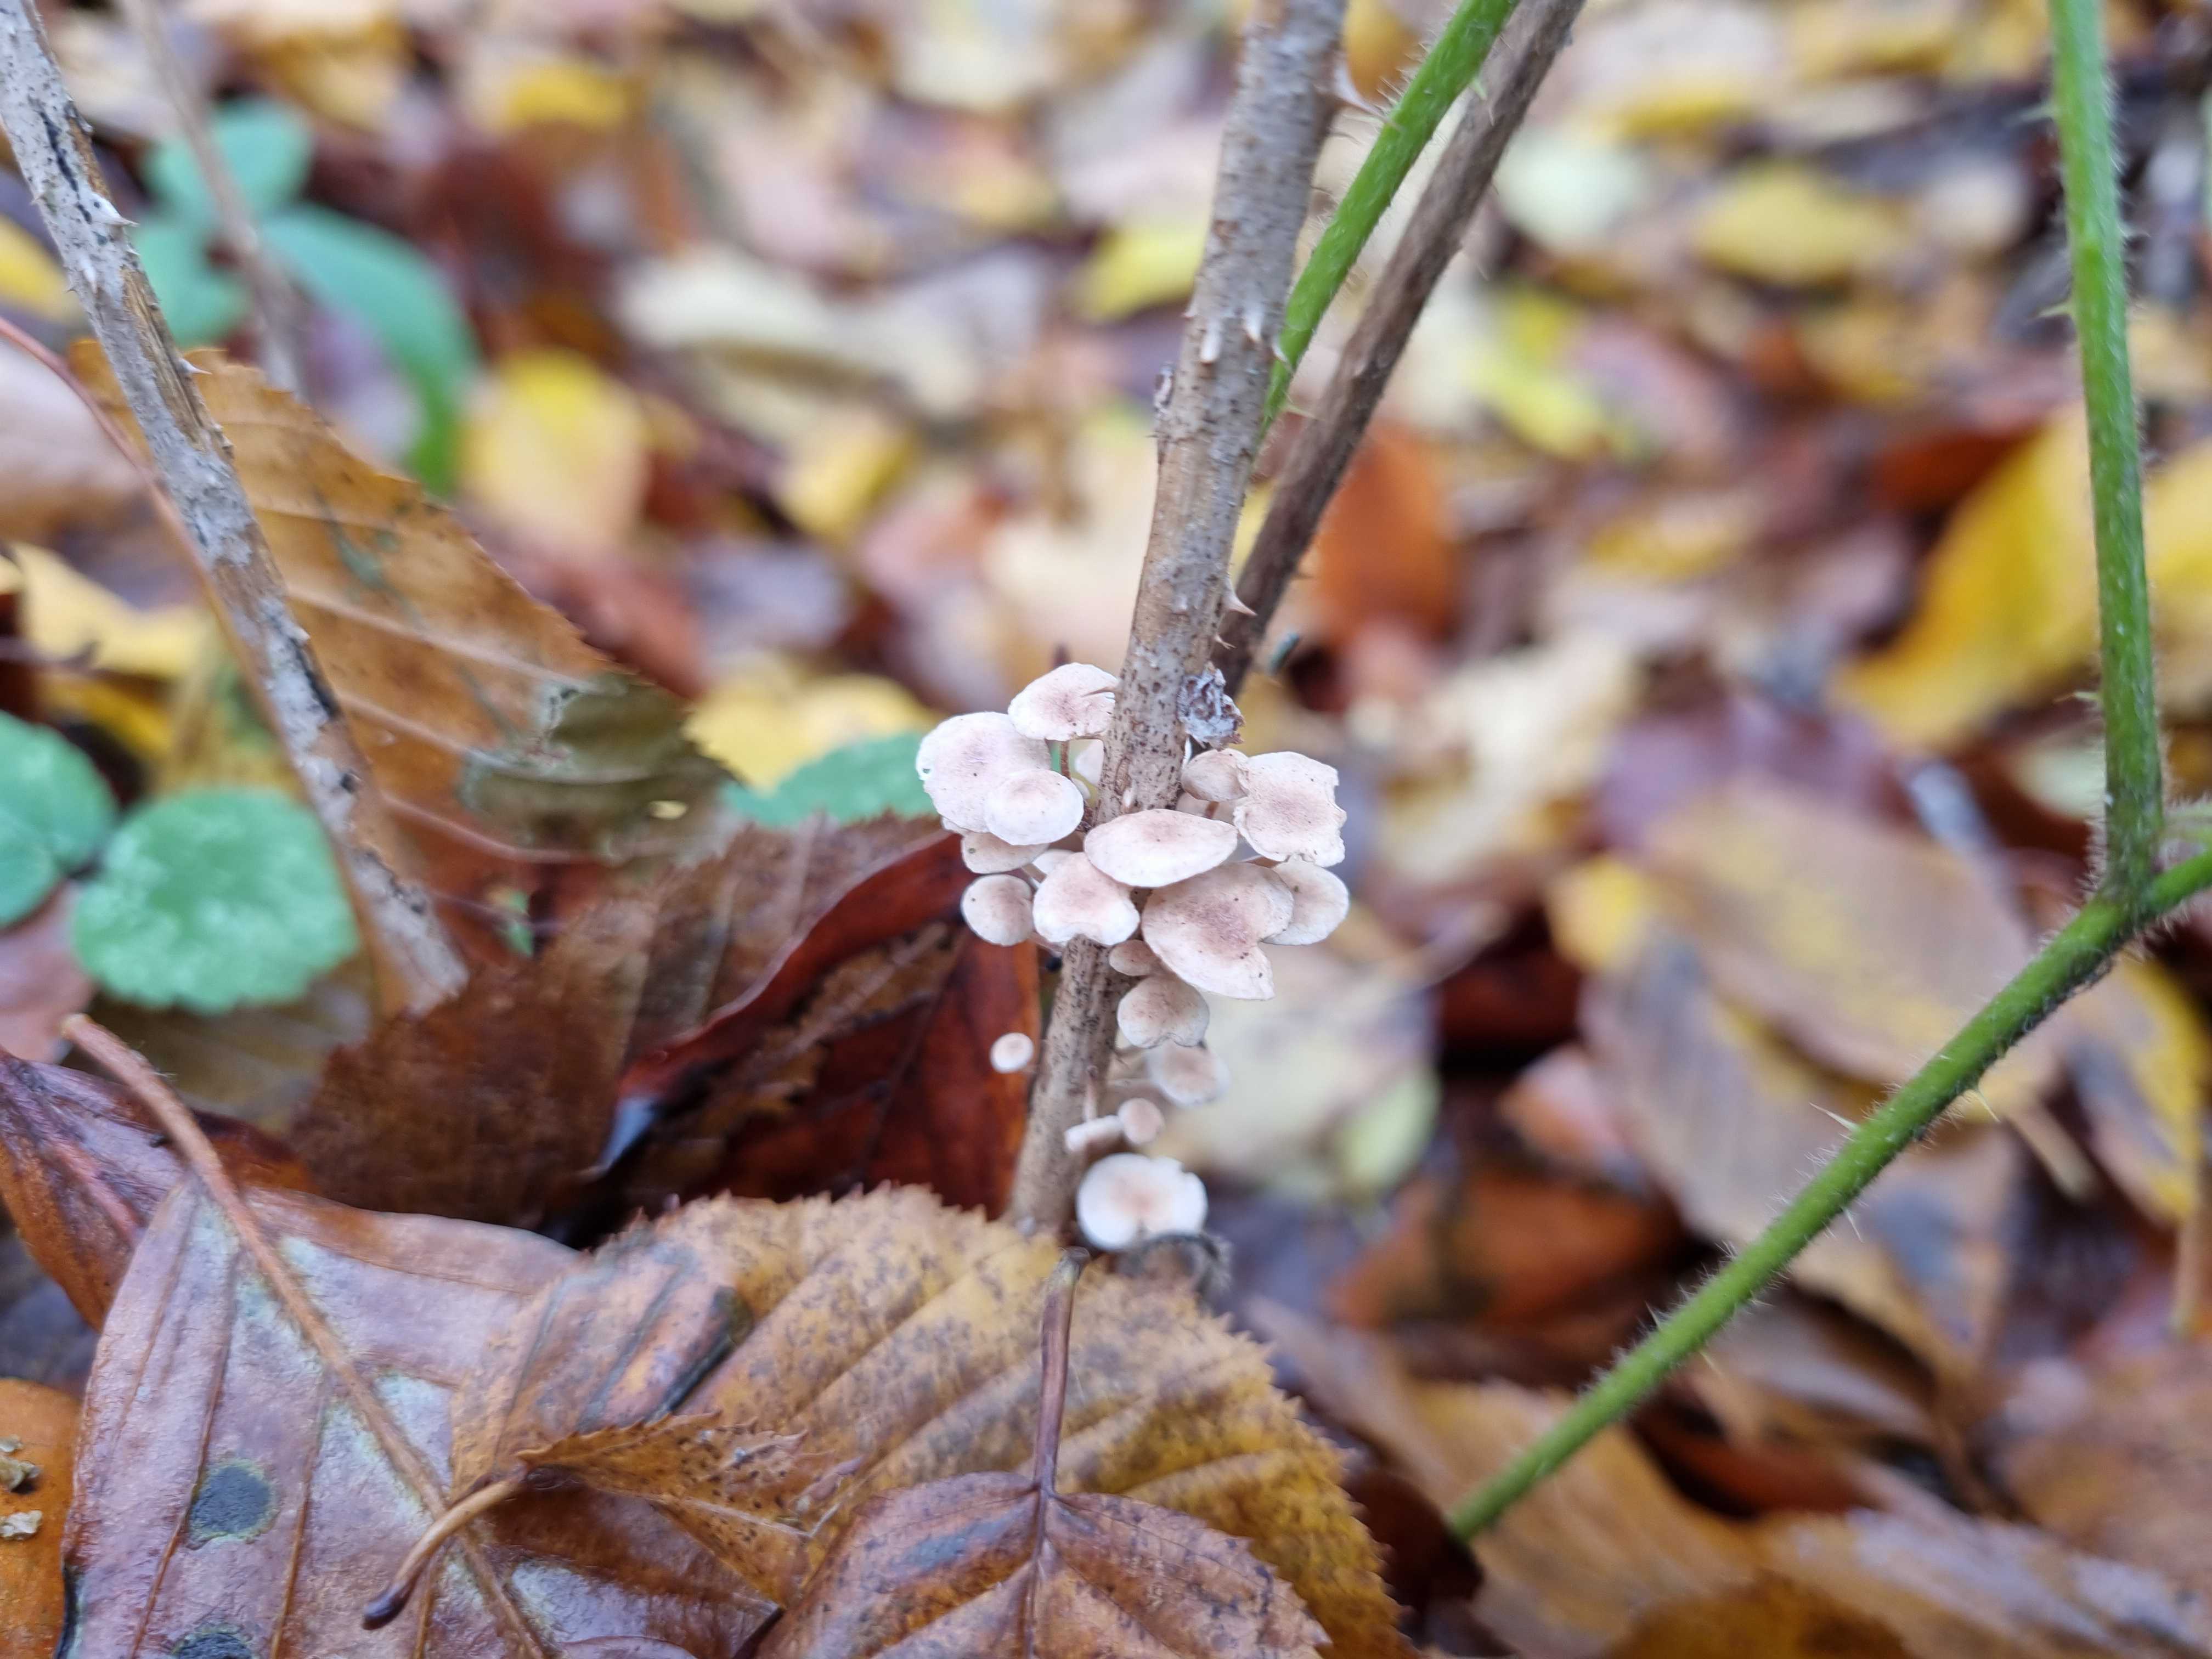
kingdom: Fungi
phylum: Basidiomycota
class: Agaricomycetes
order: Agaricales
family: Omphalotaceae
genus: Collybiopsis
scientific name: Collybiopsis ramealis
